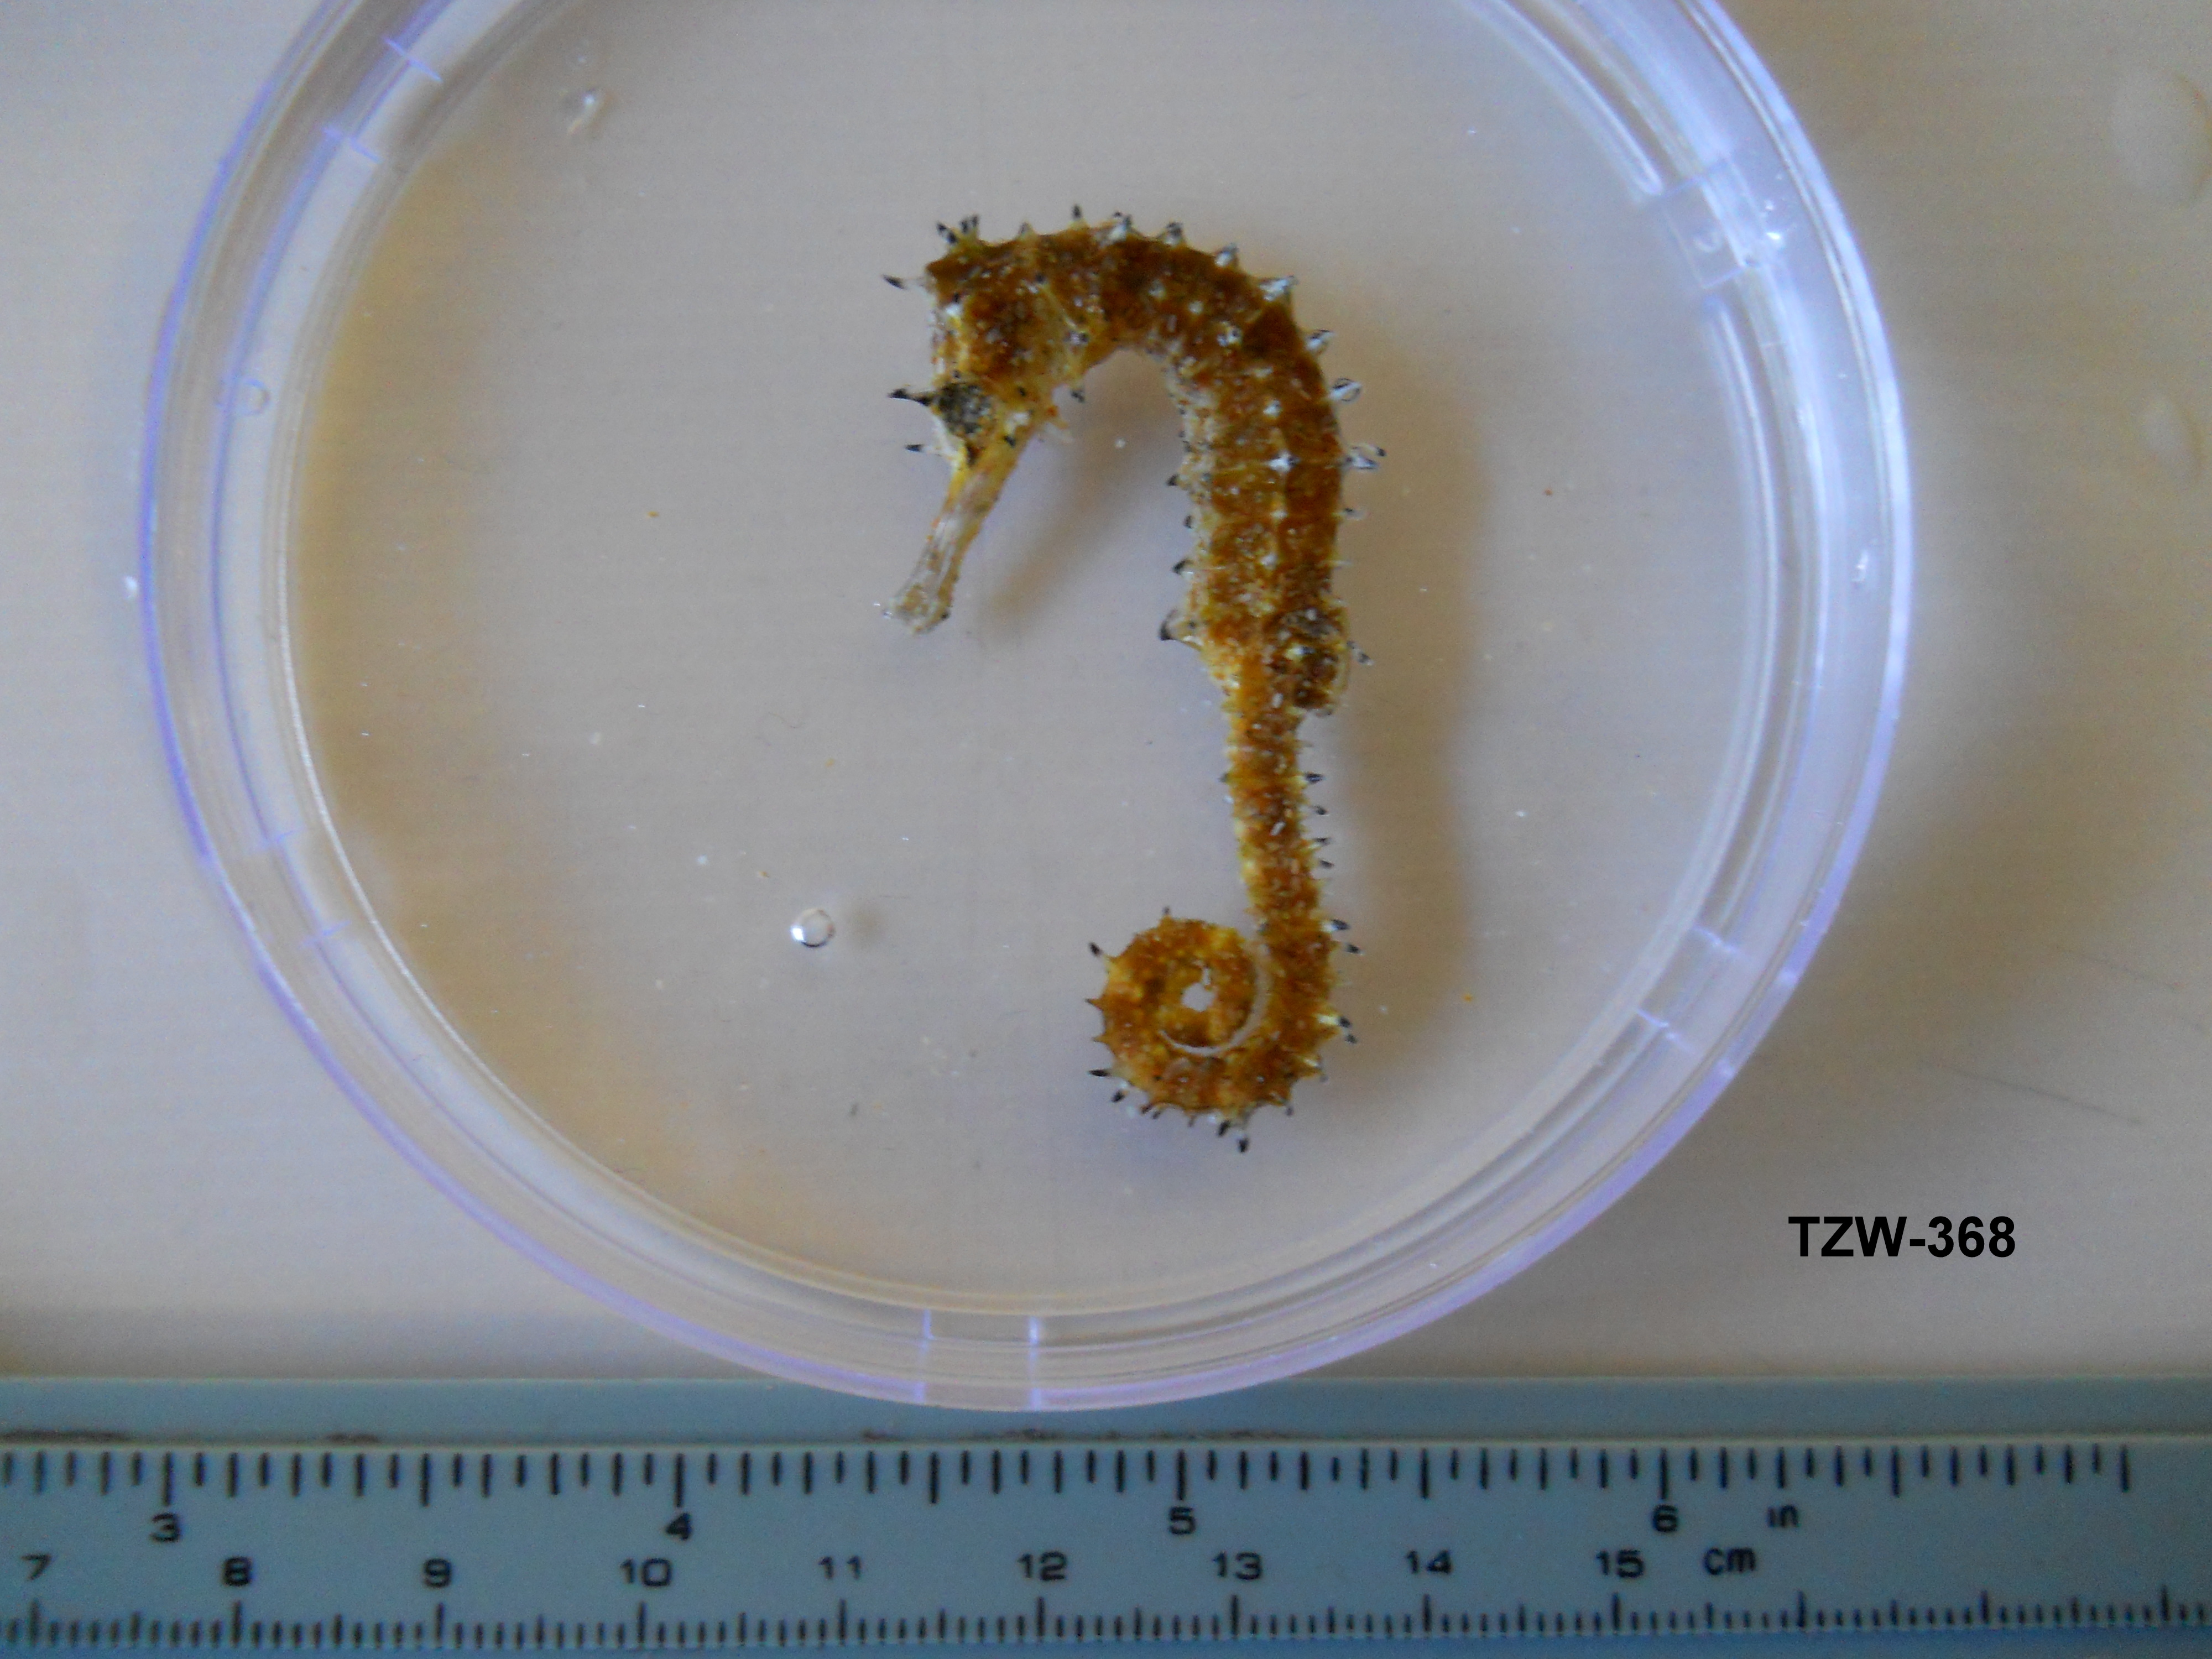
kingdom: Animalia
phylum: Chordata
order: Syngnathiformes
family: Syngnathidae
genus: Hippocampus
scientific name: Hippocampus histrix
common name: Longspine seahorse
